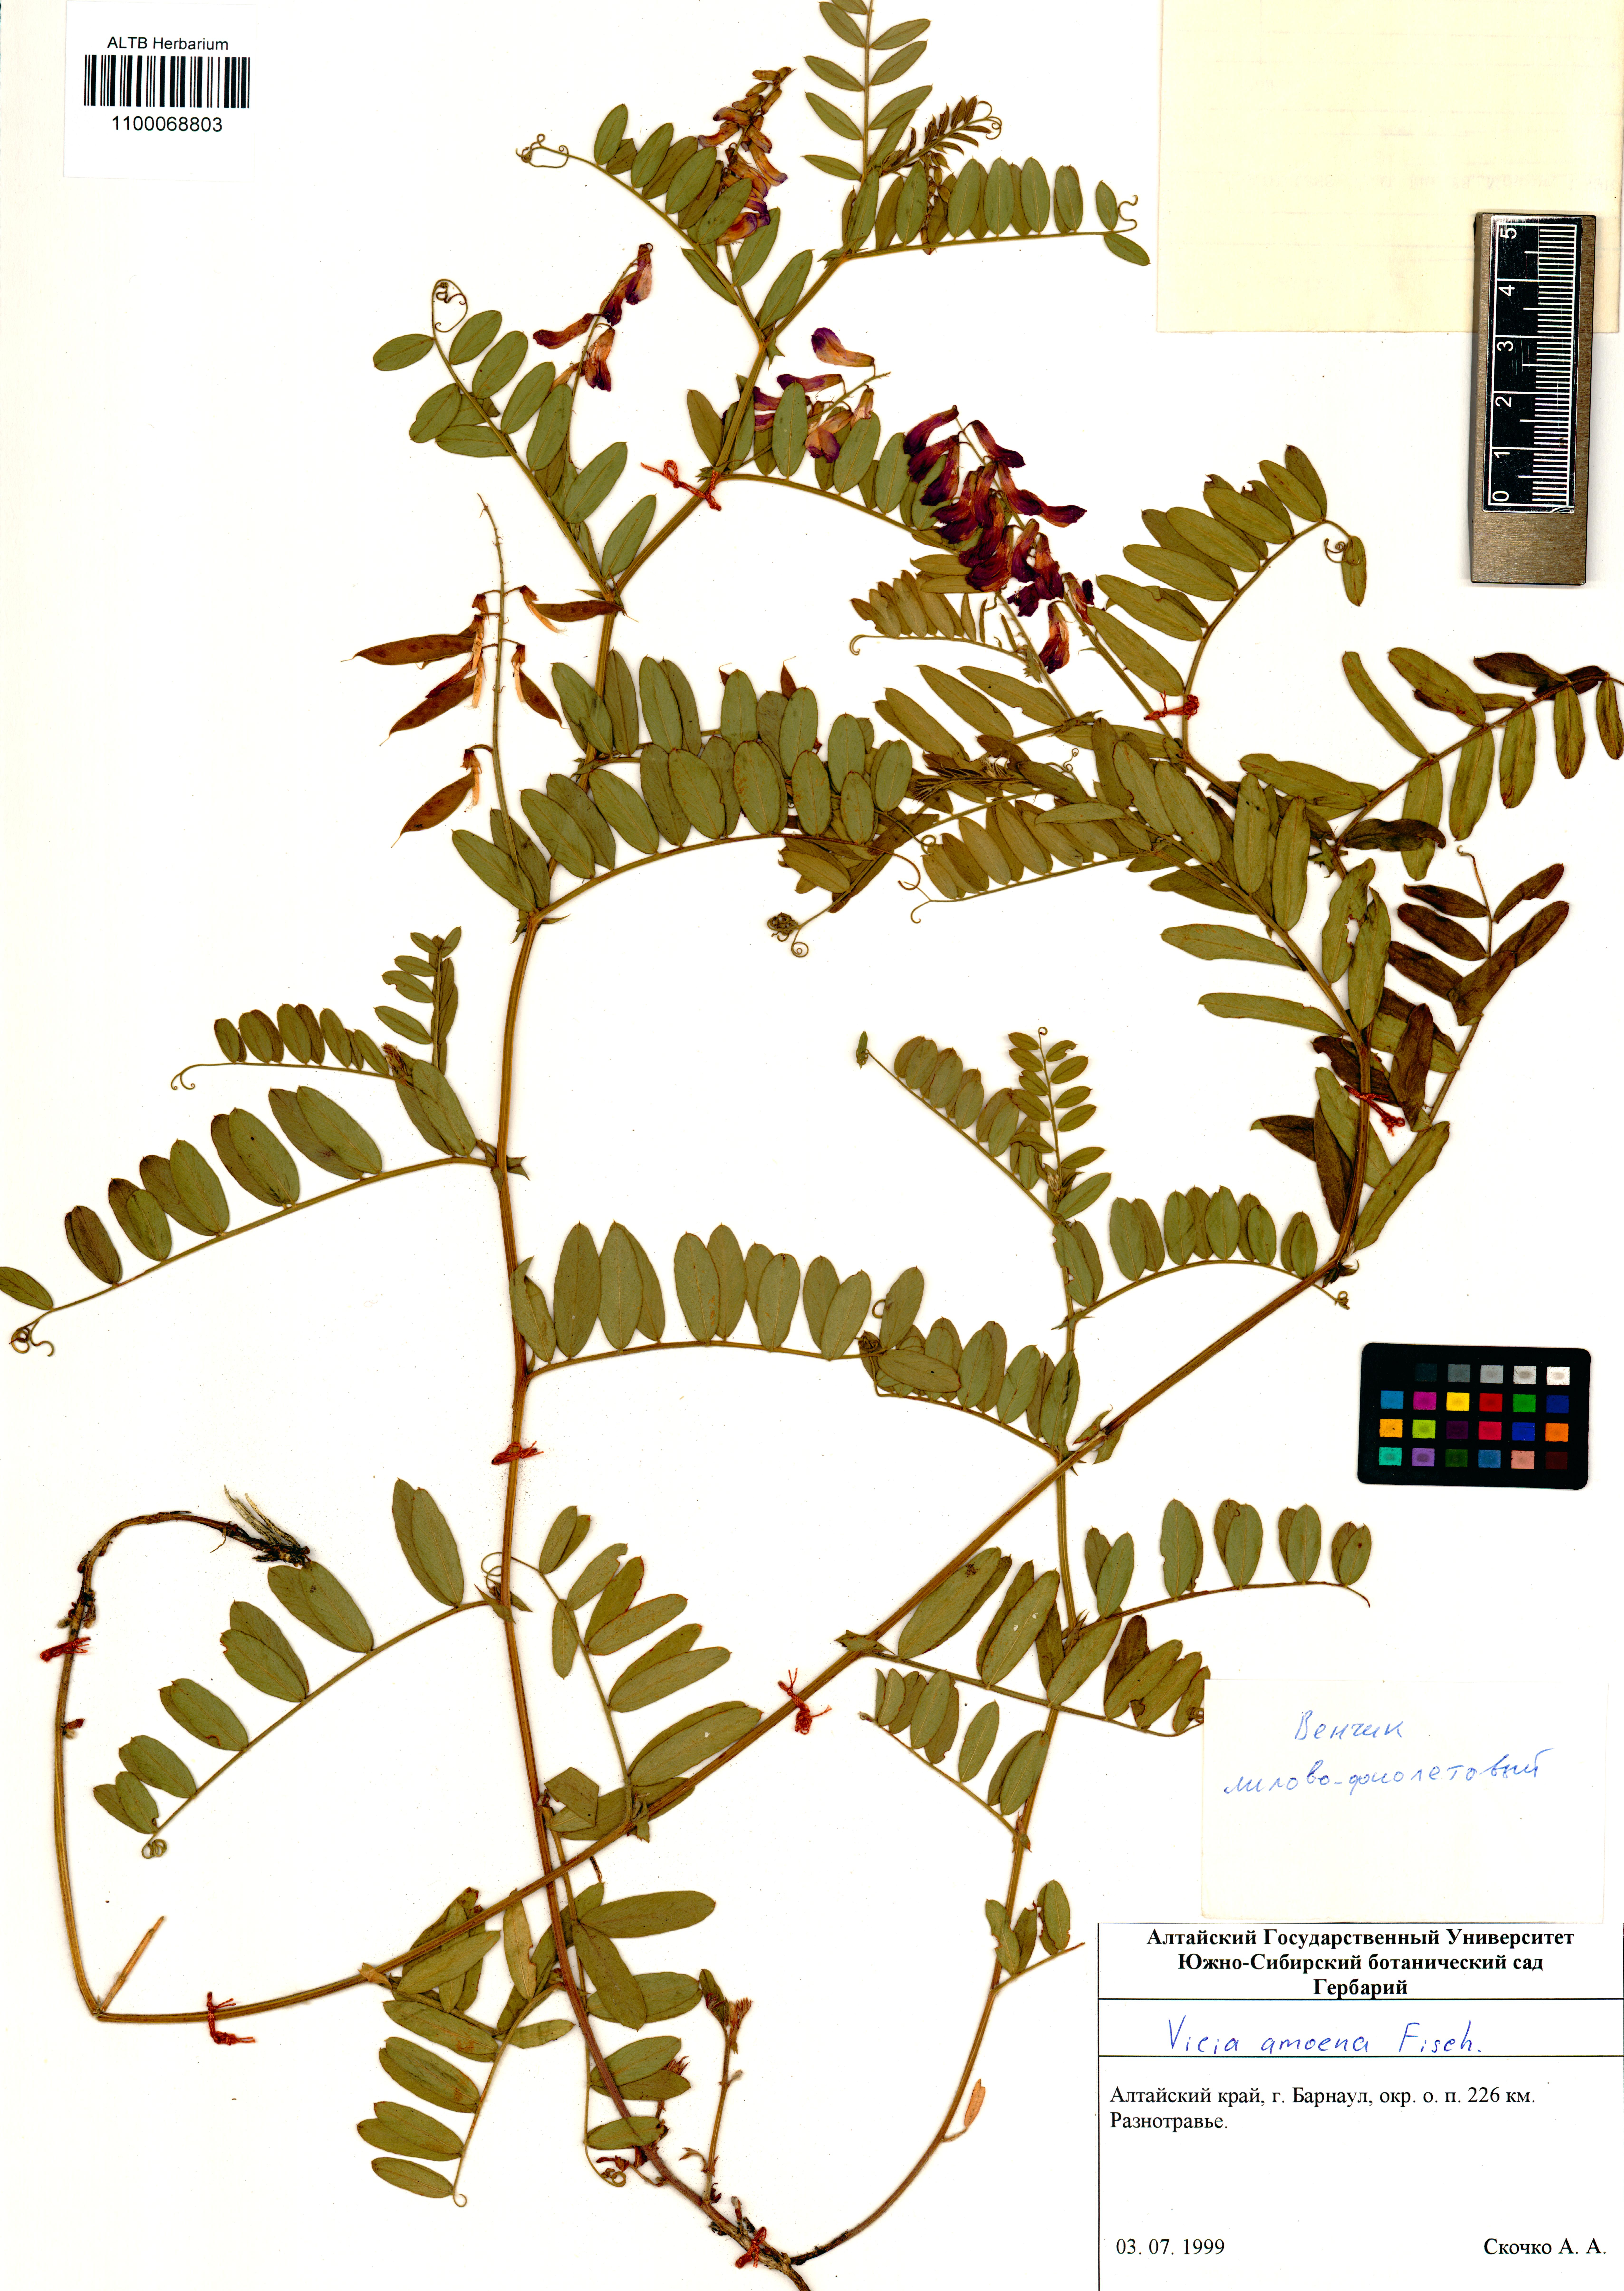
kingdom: Plantae
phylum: Tracheophyta
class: Magnoliopsida
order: Fabales
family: Fabaceae
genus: Vicia
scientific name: Vicia amoena
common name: Cheder ebs
